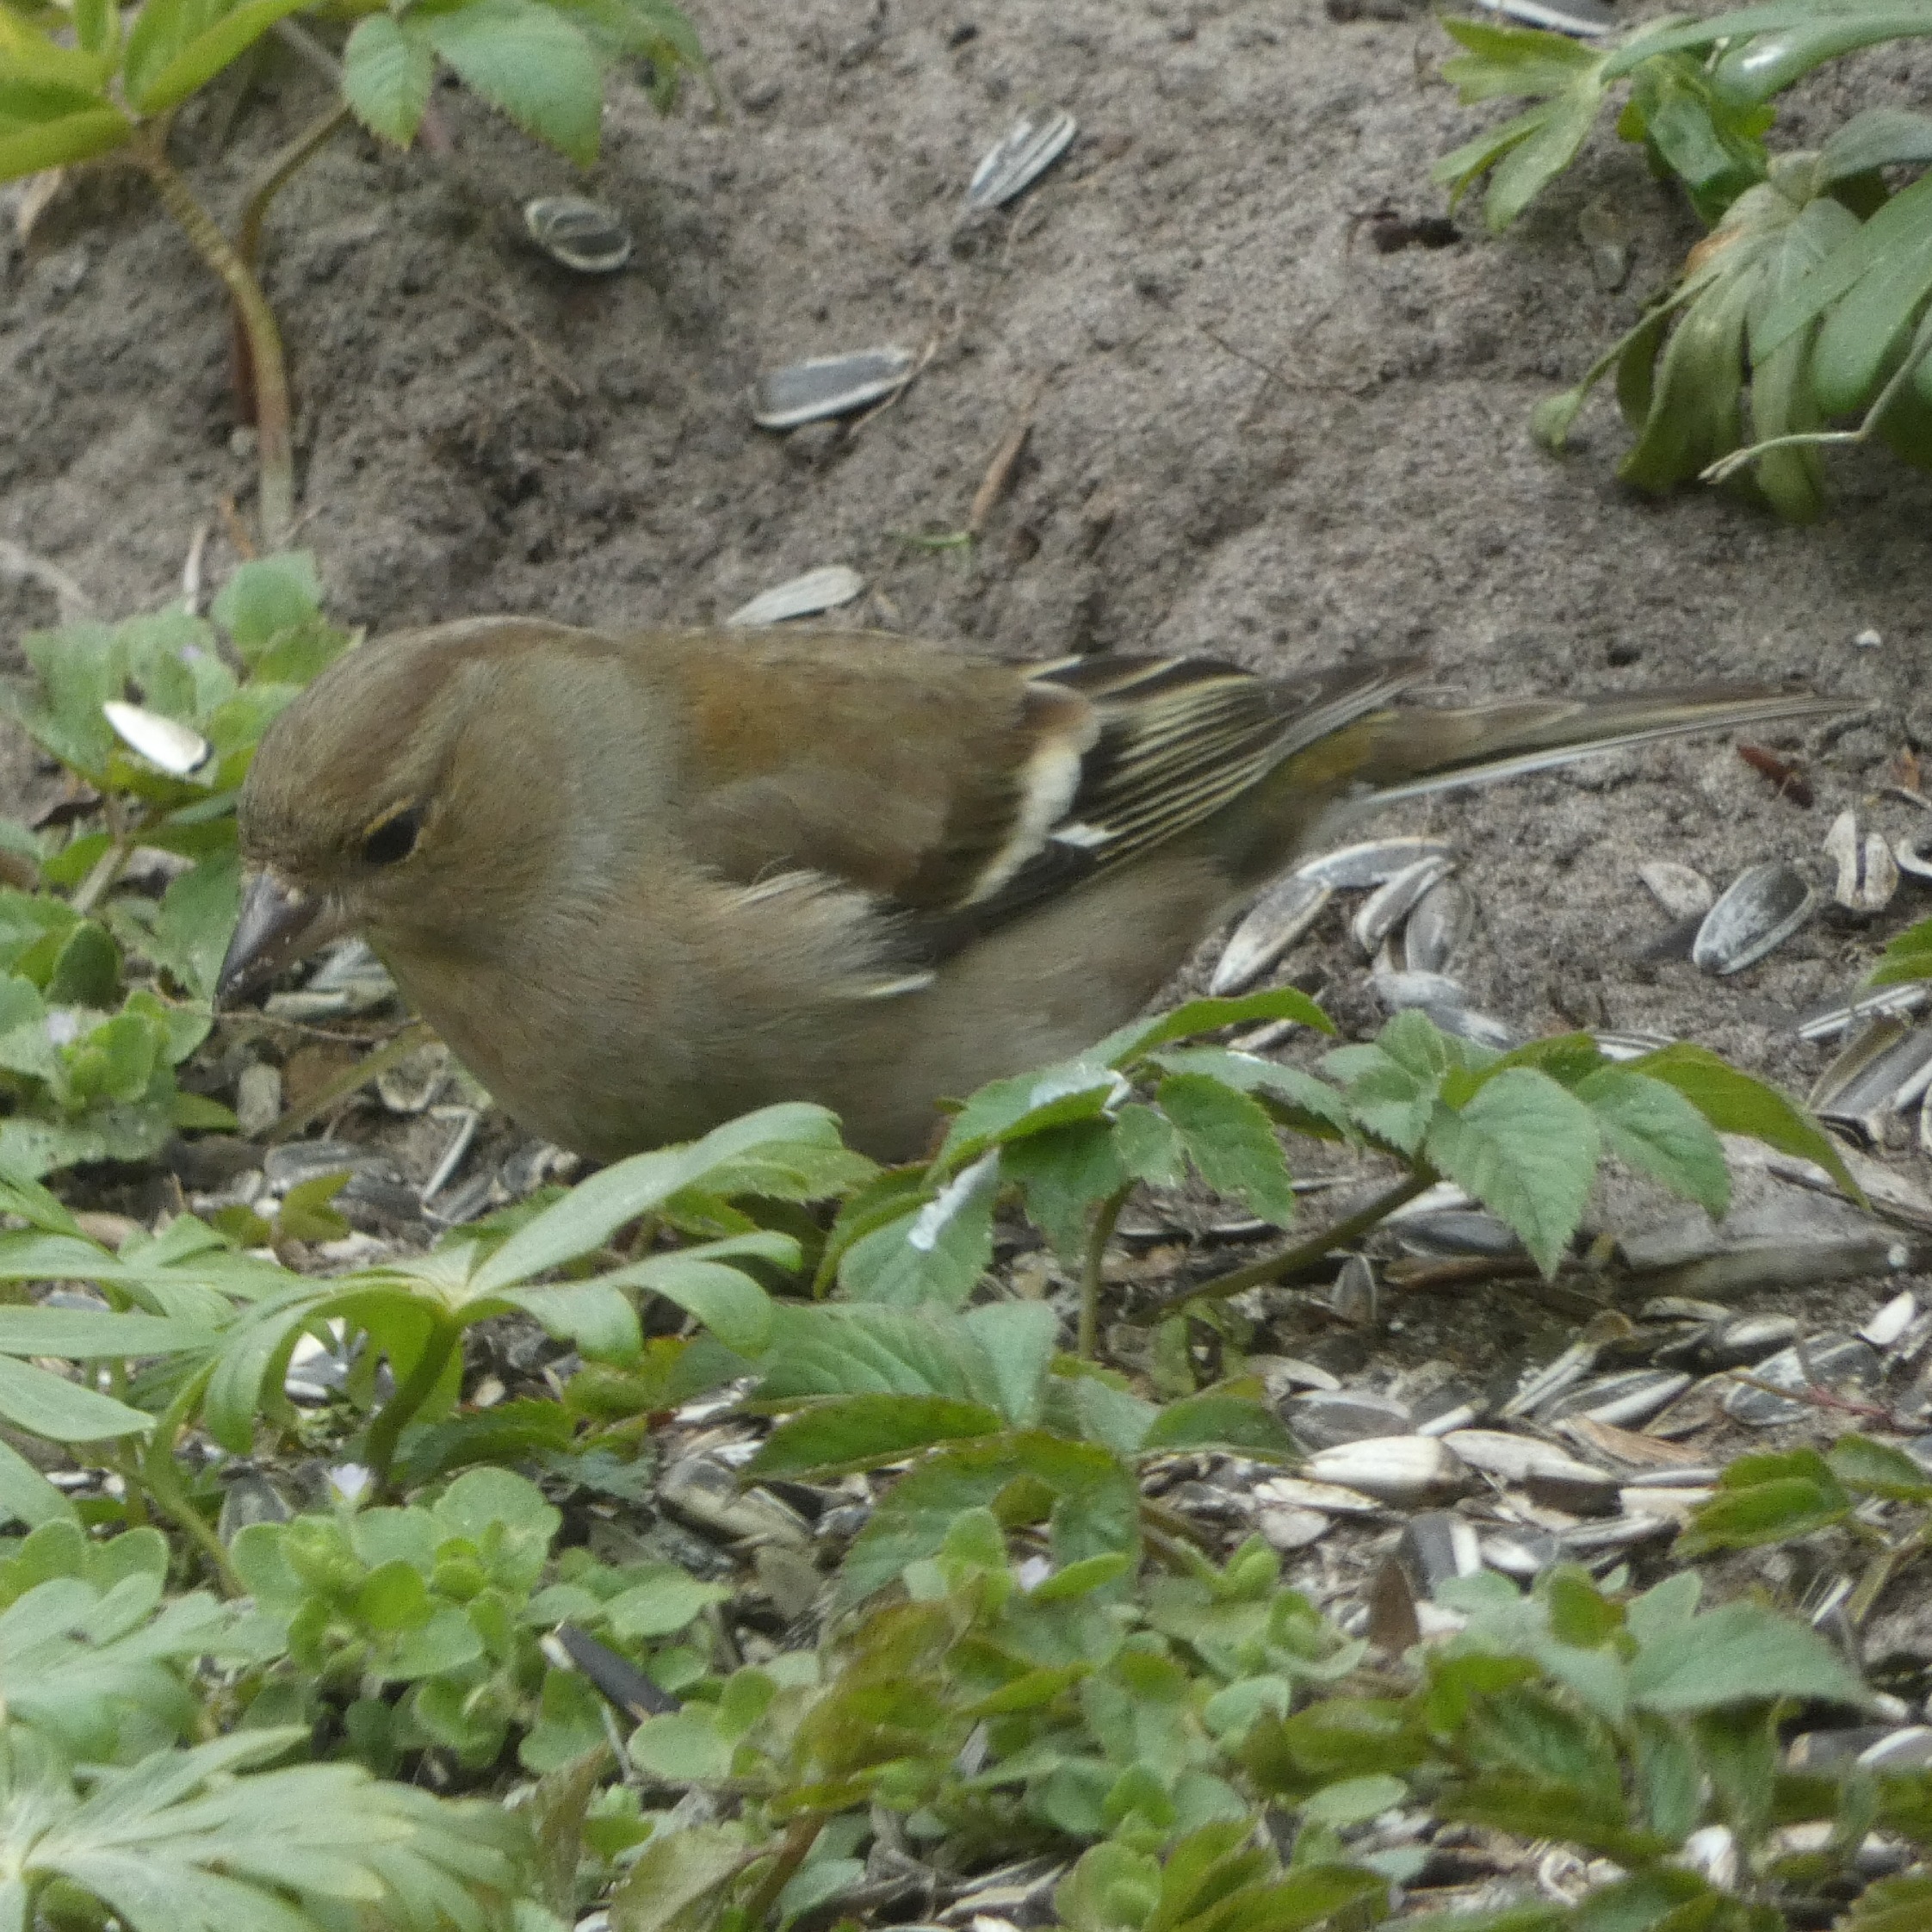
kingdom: Animalia
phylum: Chordata
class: Aves
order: Passeriformes
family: Fringillidae
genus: Fringilla
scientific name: Fringilla coelebs
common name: Bogfinke
